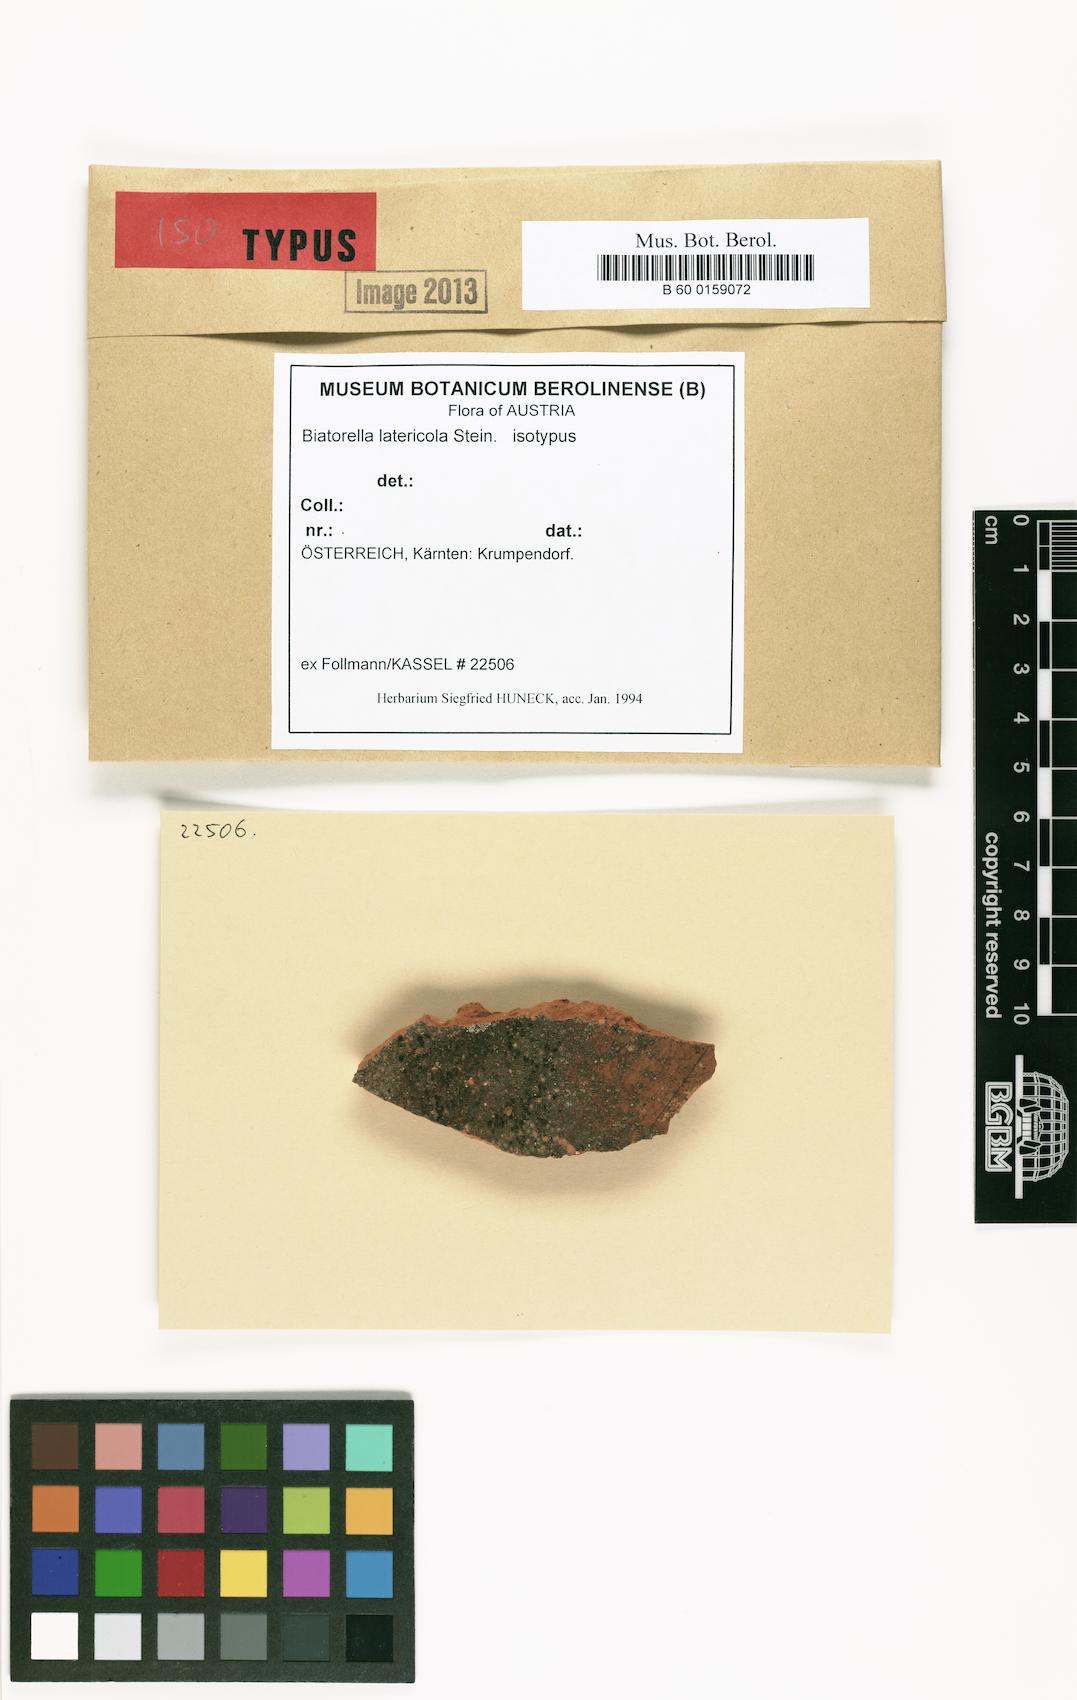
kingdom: Fungi
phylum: Ascomycota
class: Lecanoromycetes
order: Lecanorales
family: Biatorellaceae
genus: Biatorella
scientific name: Biatorella latericola
